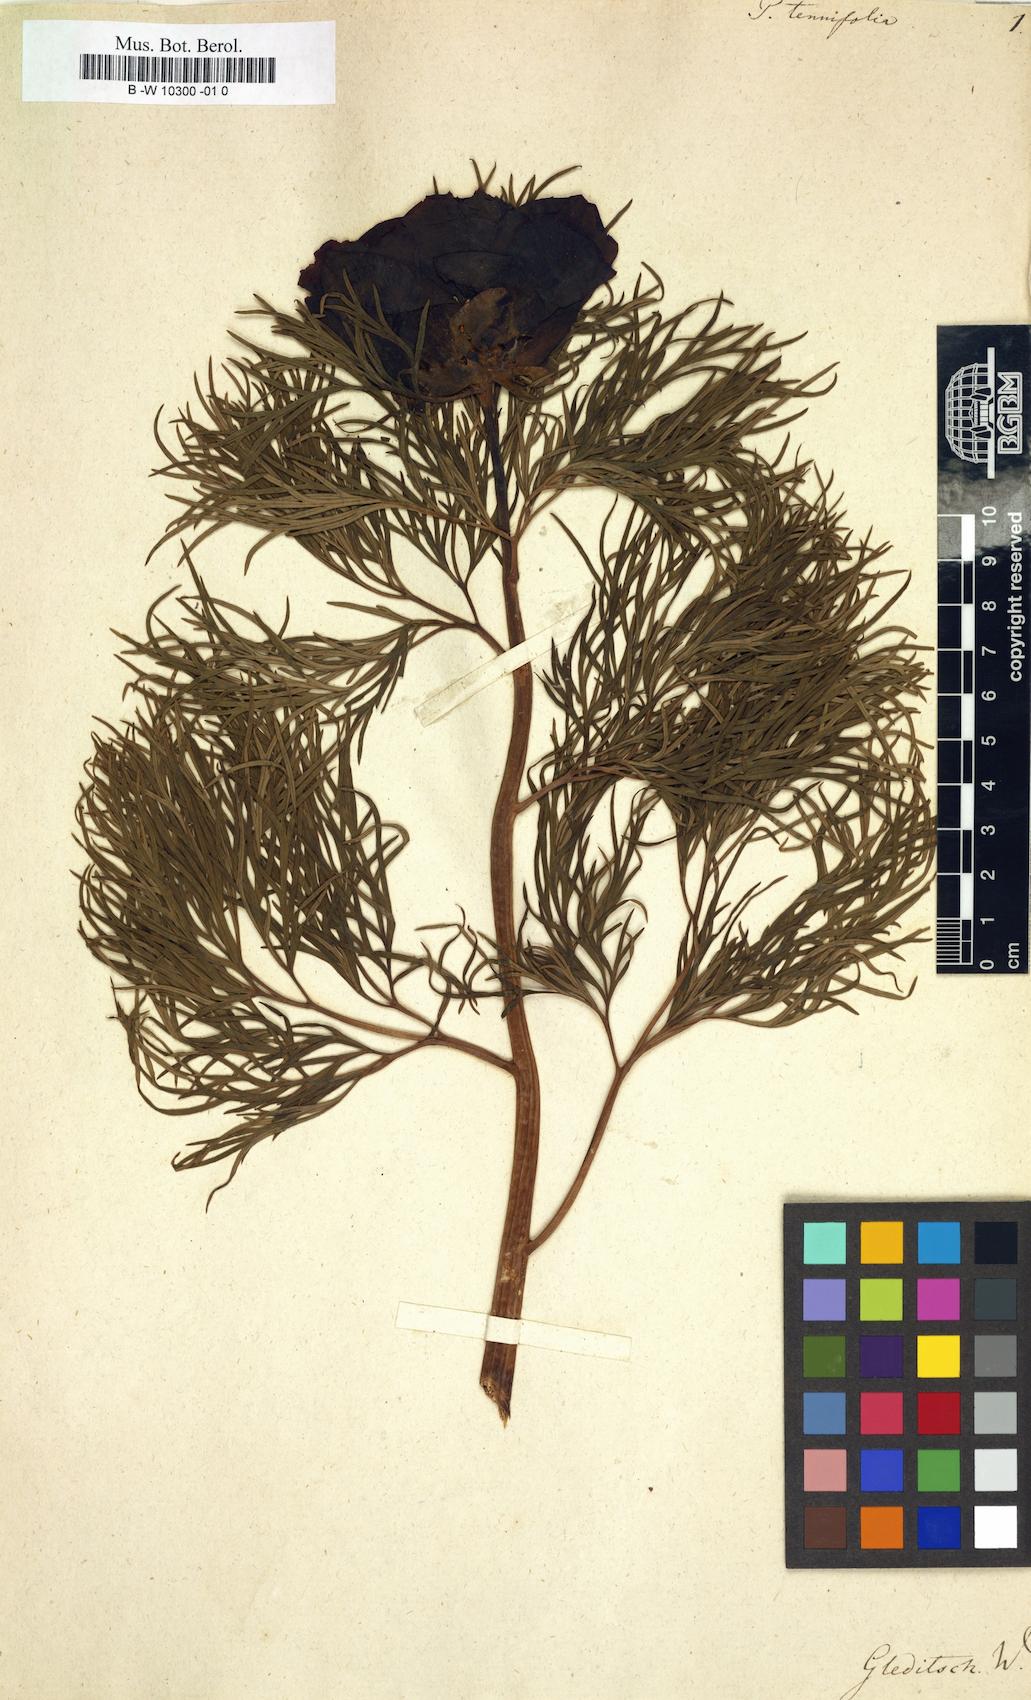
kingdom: Plantae
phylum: Tracheophyta
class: Magnoliopsida
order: Saxifragales
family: Paeoniaceae
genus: Paeonia
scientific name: Paeonia tenuifolia
